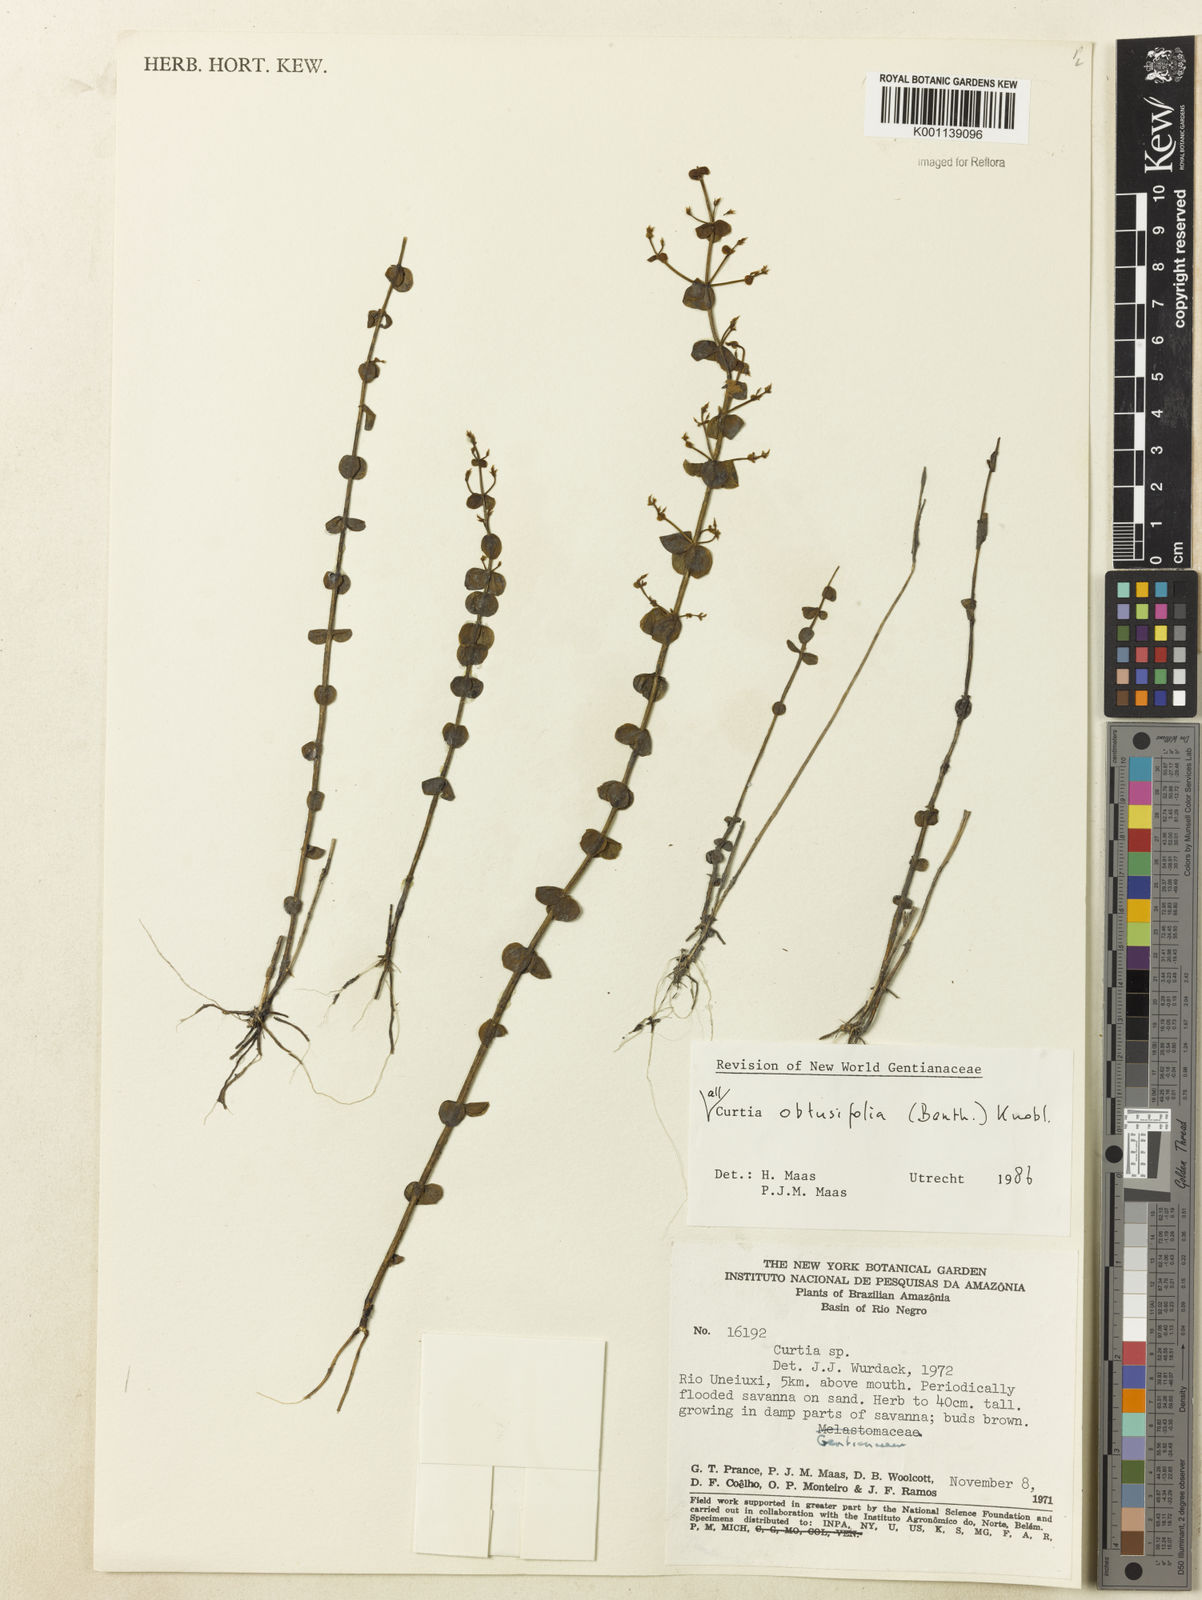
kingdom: Plantae
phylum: Tracheophyta
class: Magnoliopsida
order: Gentianales
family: Gentianaceae
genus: Curtia
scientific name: Curtia obtusifolia
